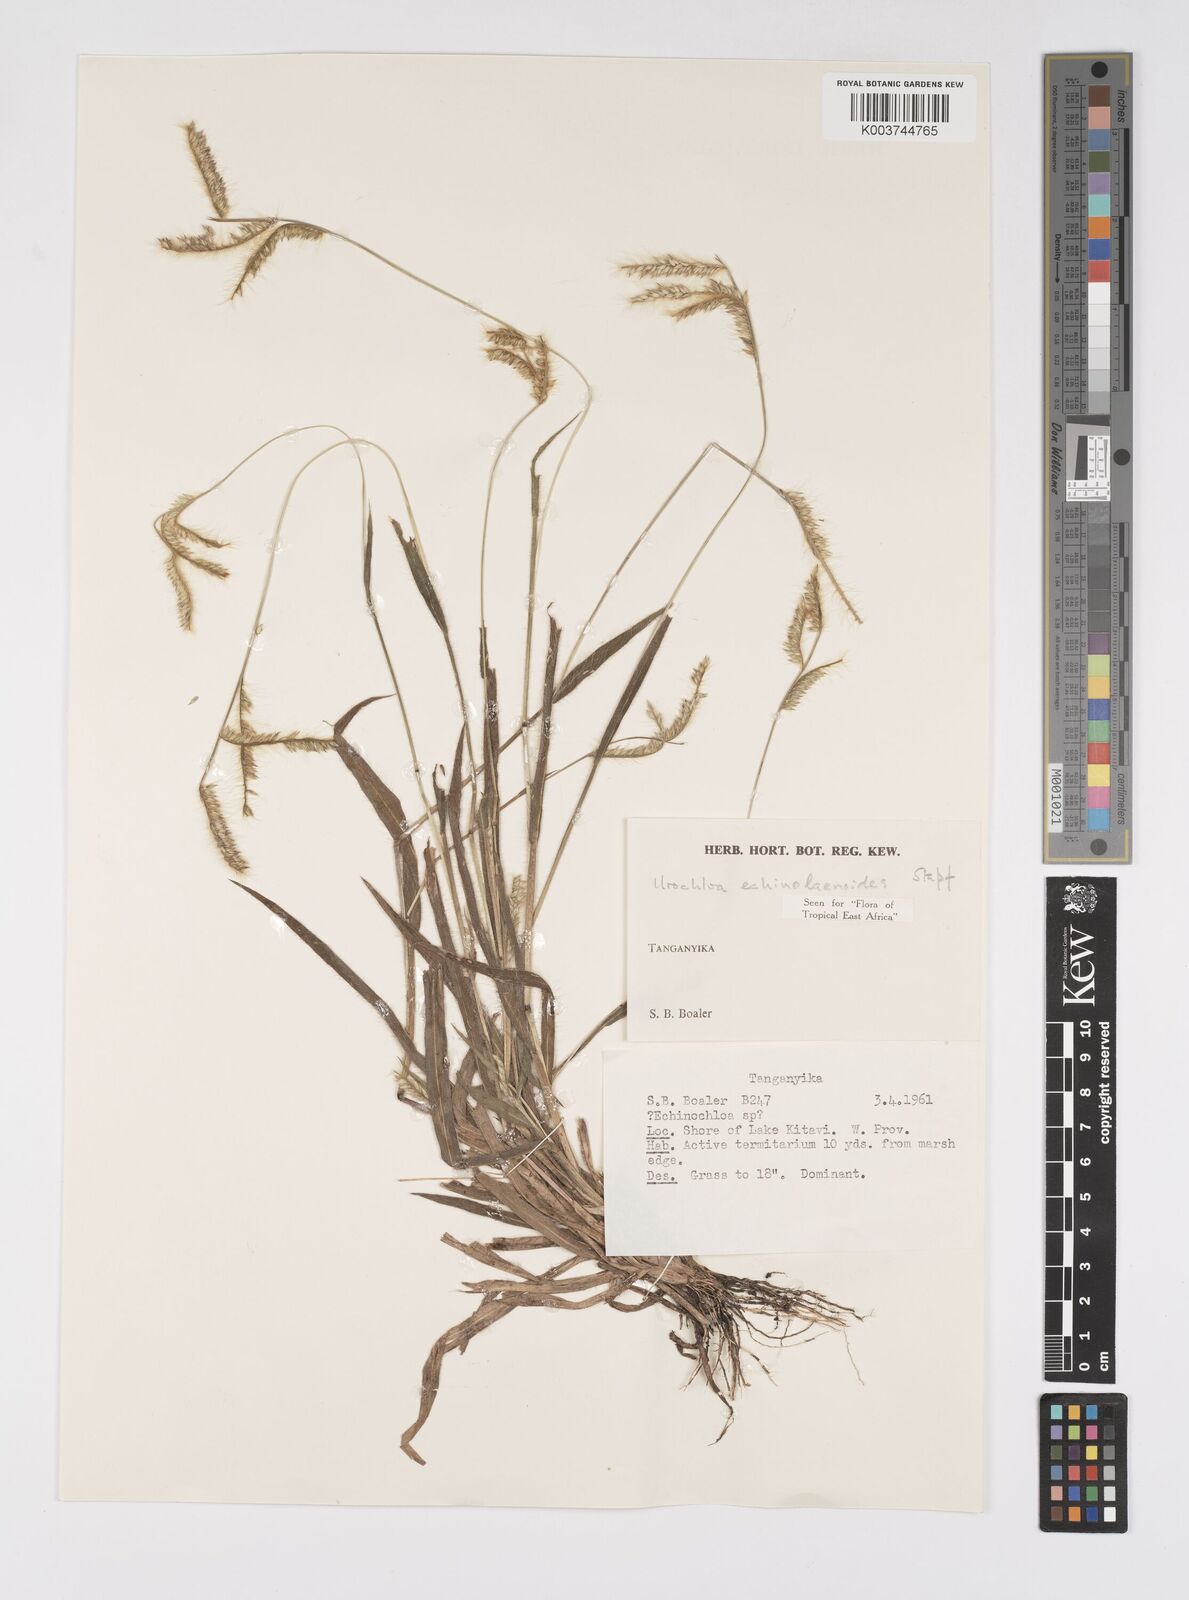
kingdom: Plantae
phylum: Tracheophyta
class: Liliopsida
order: Poales
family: Poaceae
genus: Urochloa
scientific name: Urochloa echinolaenoides
